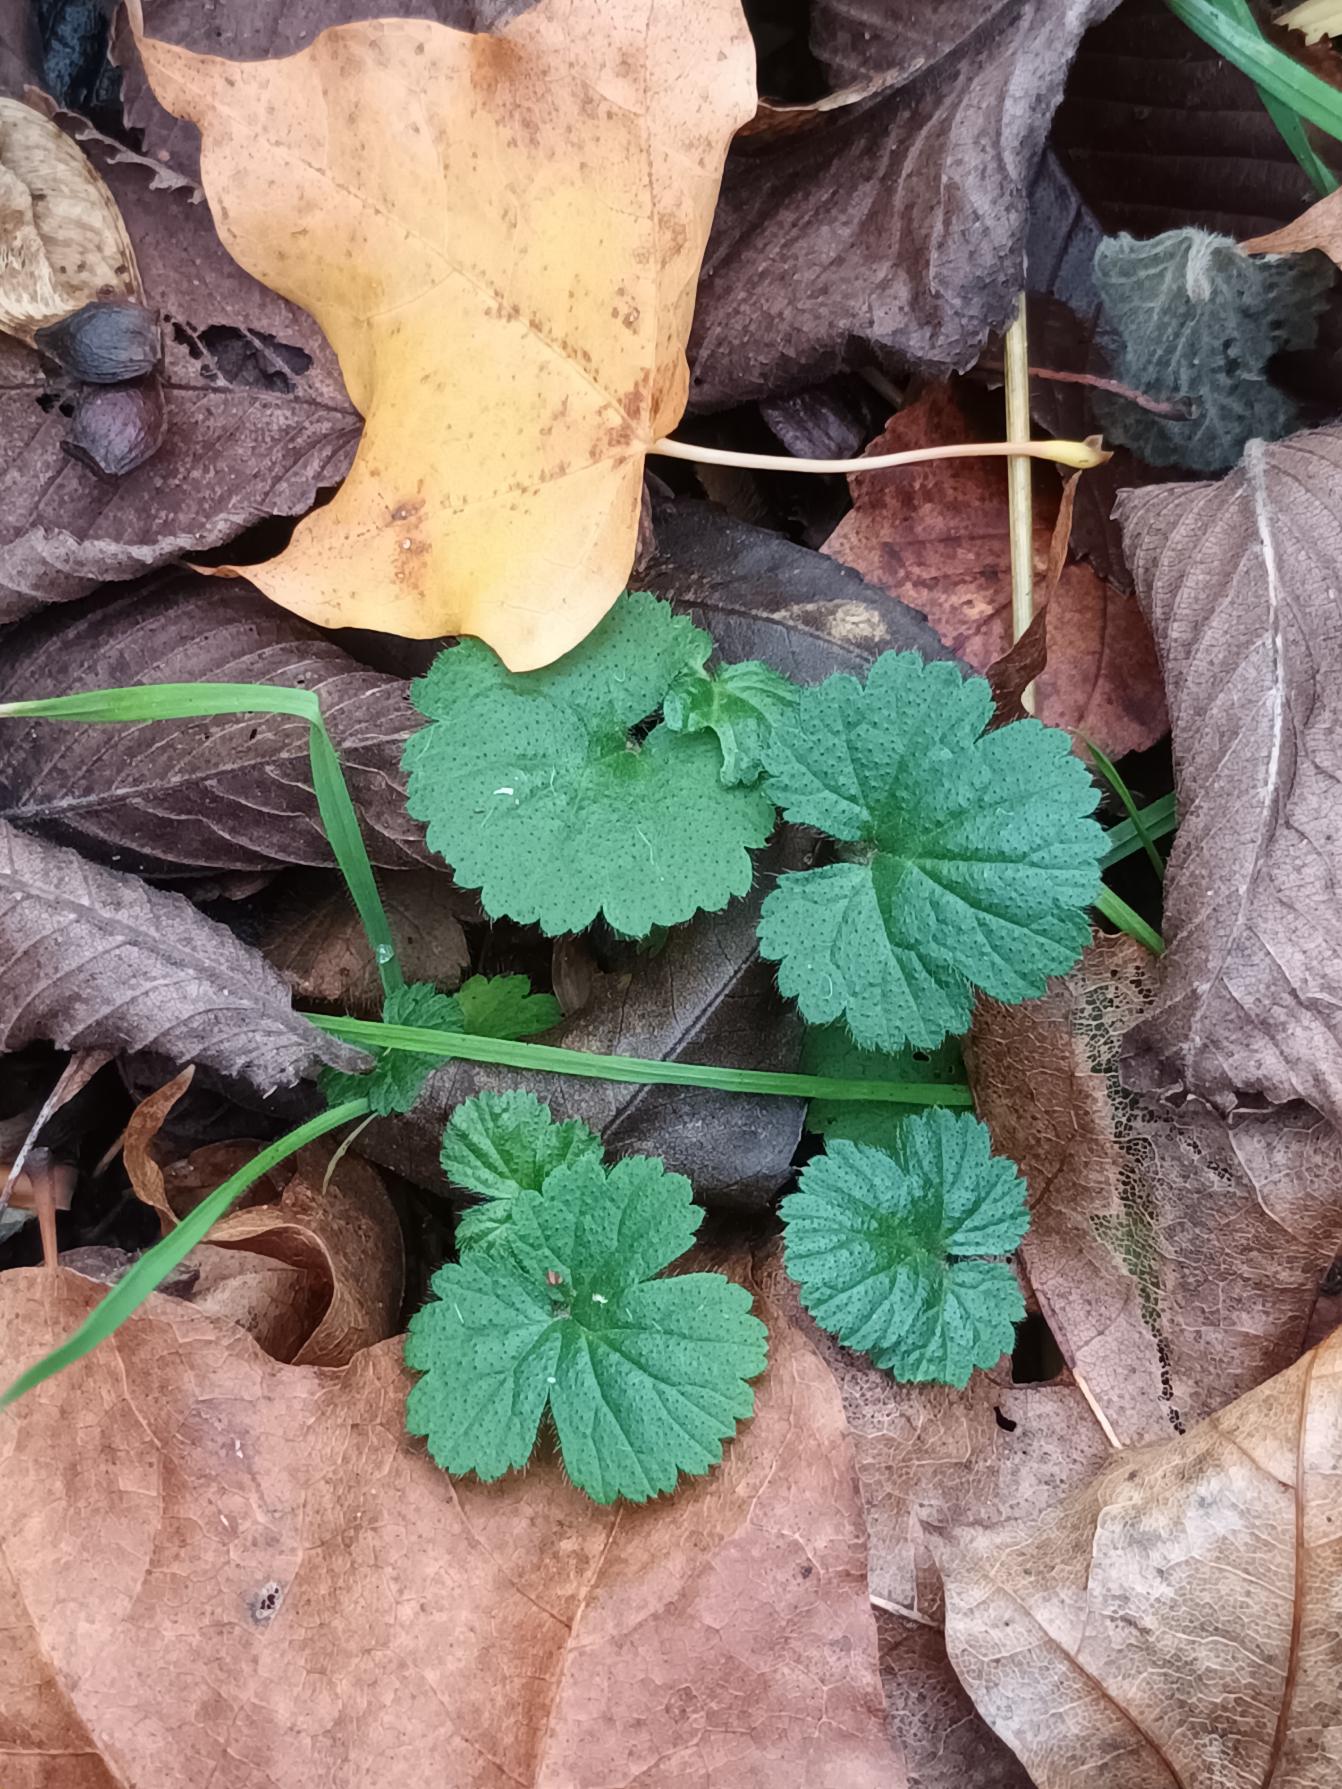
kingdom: Plantae
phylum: Tracheophyta
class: Magnoliopsida
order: Rosales
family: Rosaceae
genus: Geum
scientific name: Geum urbanum
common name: Feber-nellikerod
